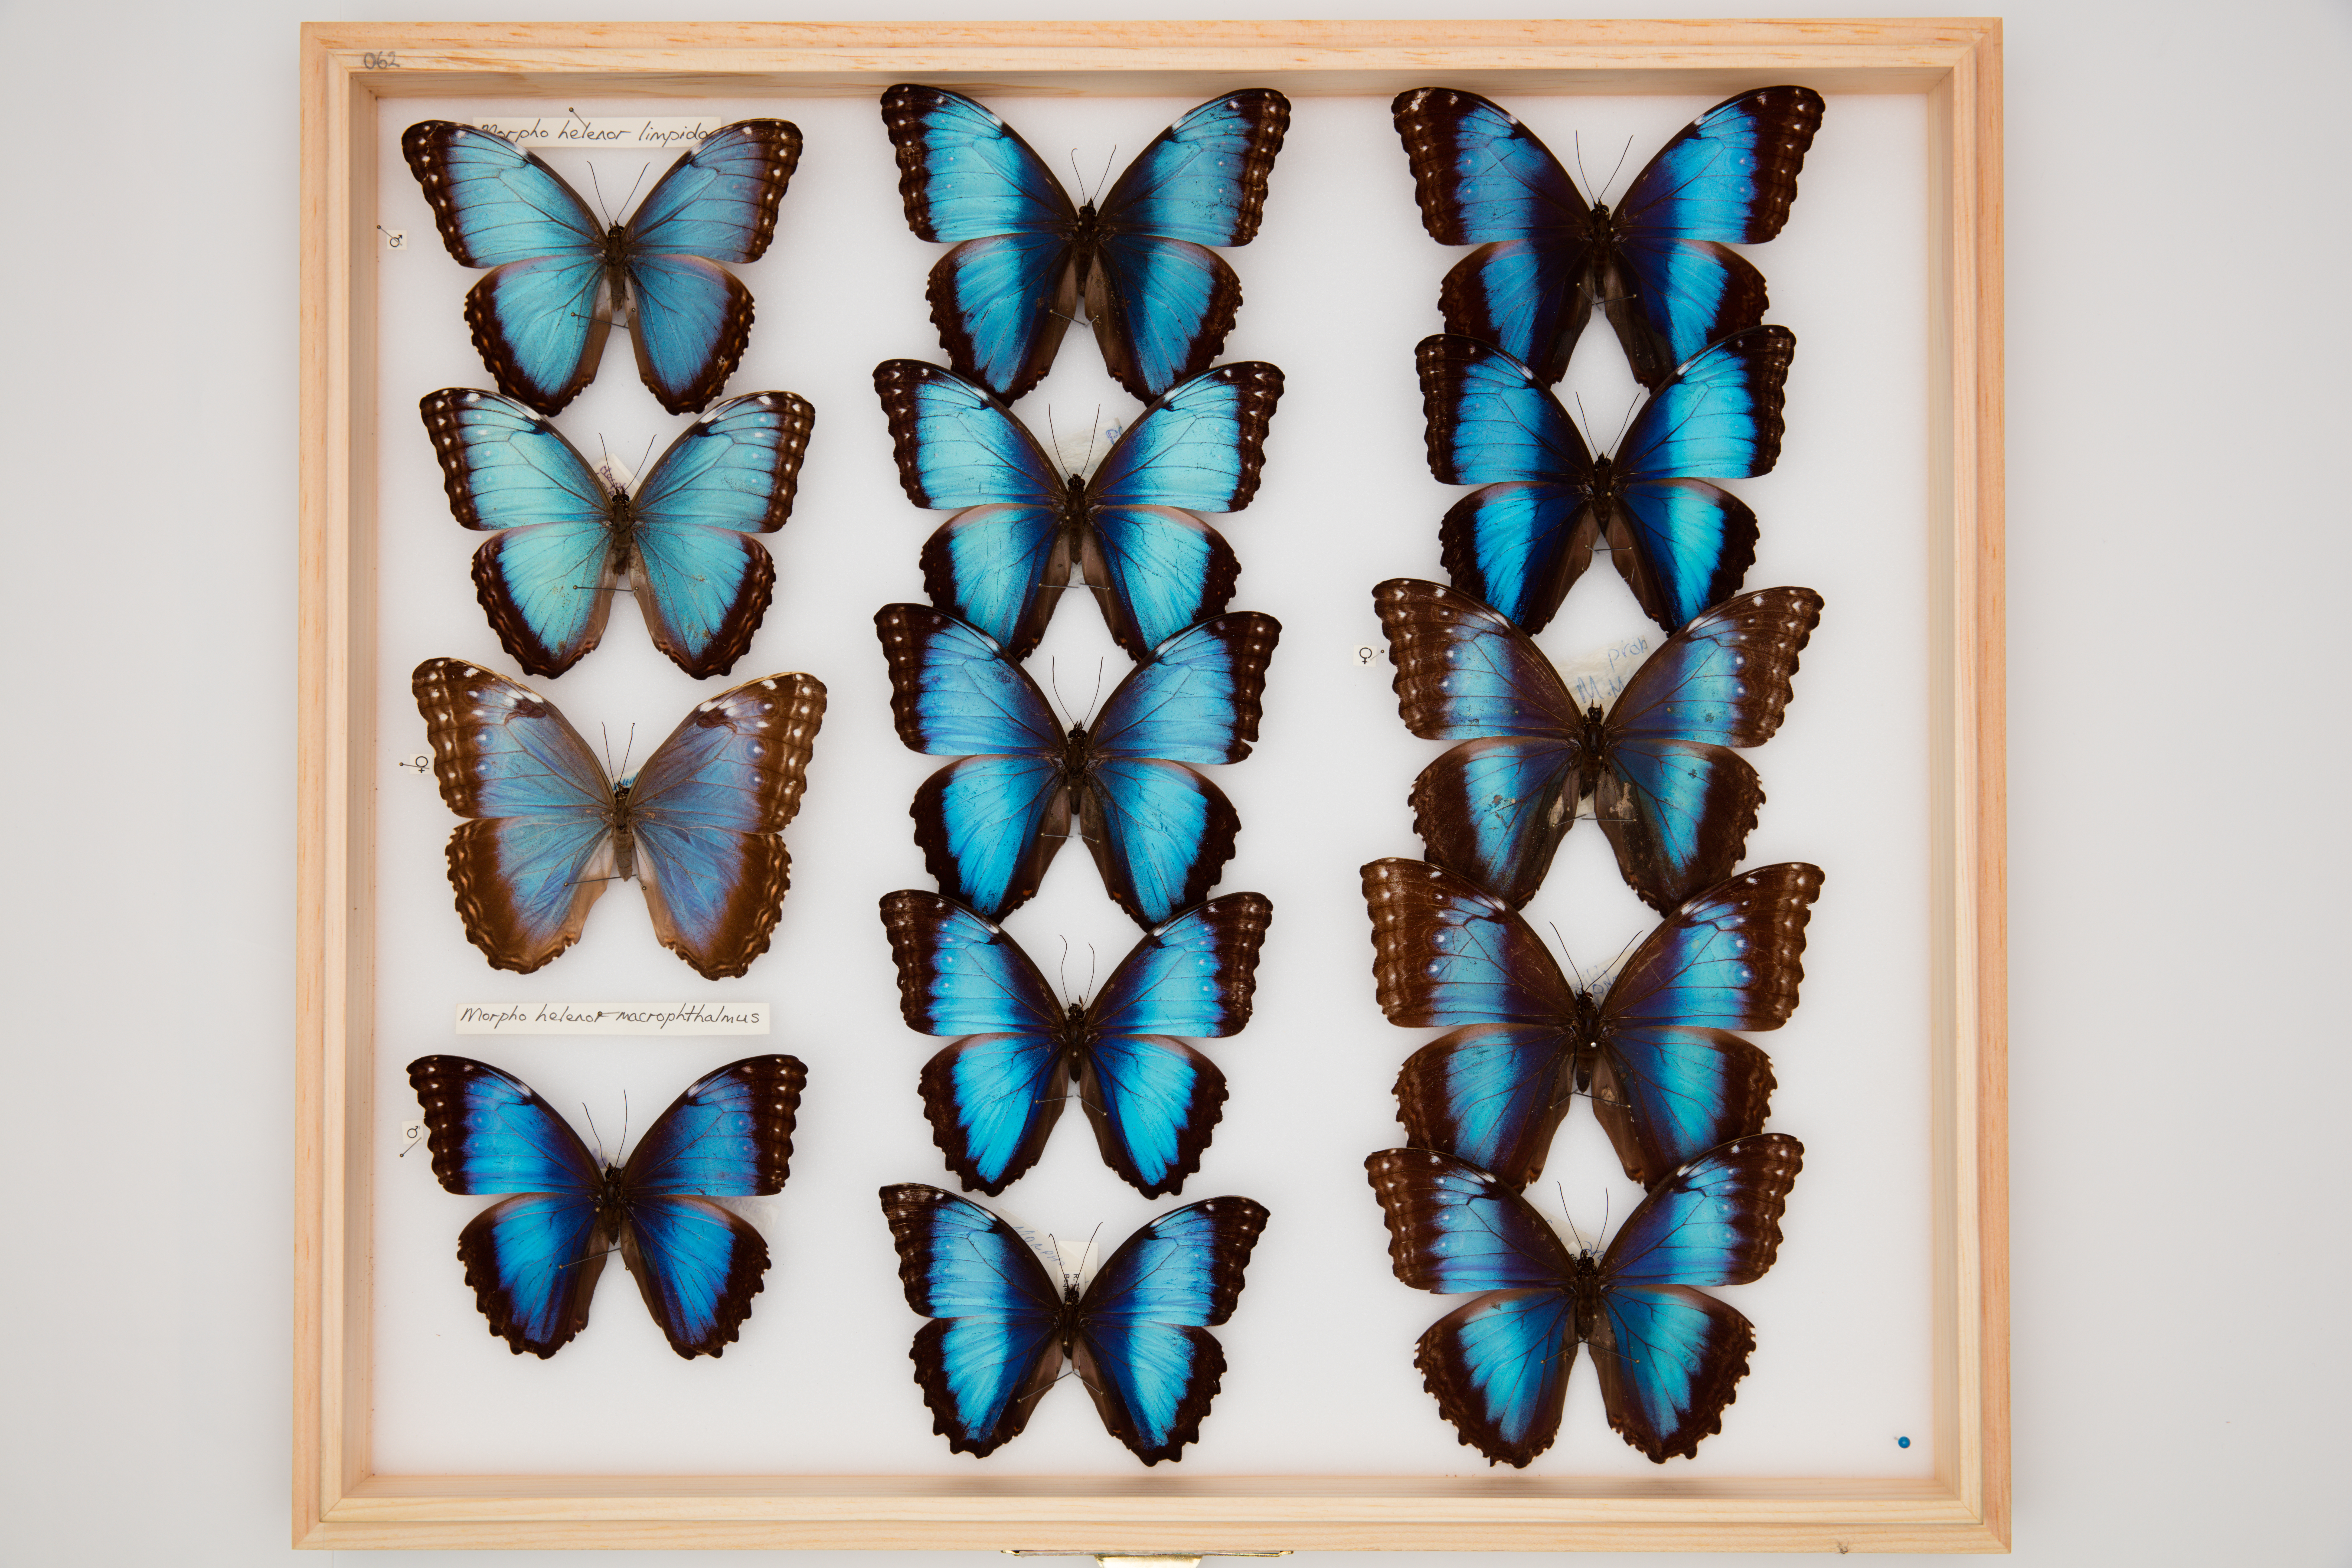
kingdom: Animalia
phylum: Arthropoda
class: Insecta
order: Lepidoptera
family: Nymphalidae
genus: Morpho
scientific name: Morpho helenor
